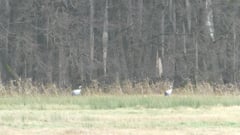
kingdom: Animalia
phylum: Chordata
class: Aves
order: Gruiformes
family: Gruidae
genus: Grus
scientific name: Grus grus
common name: Common crane
